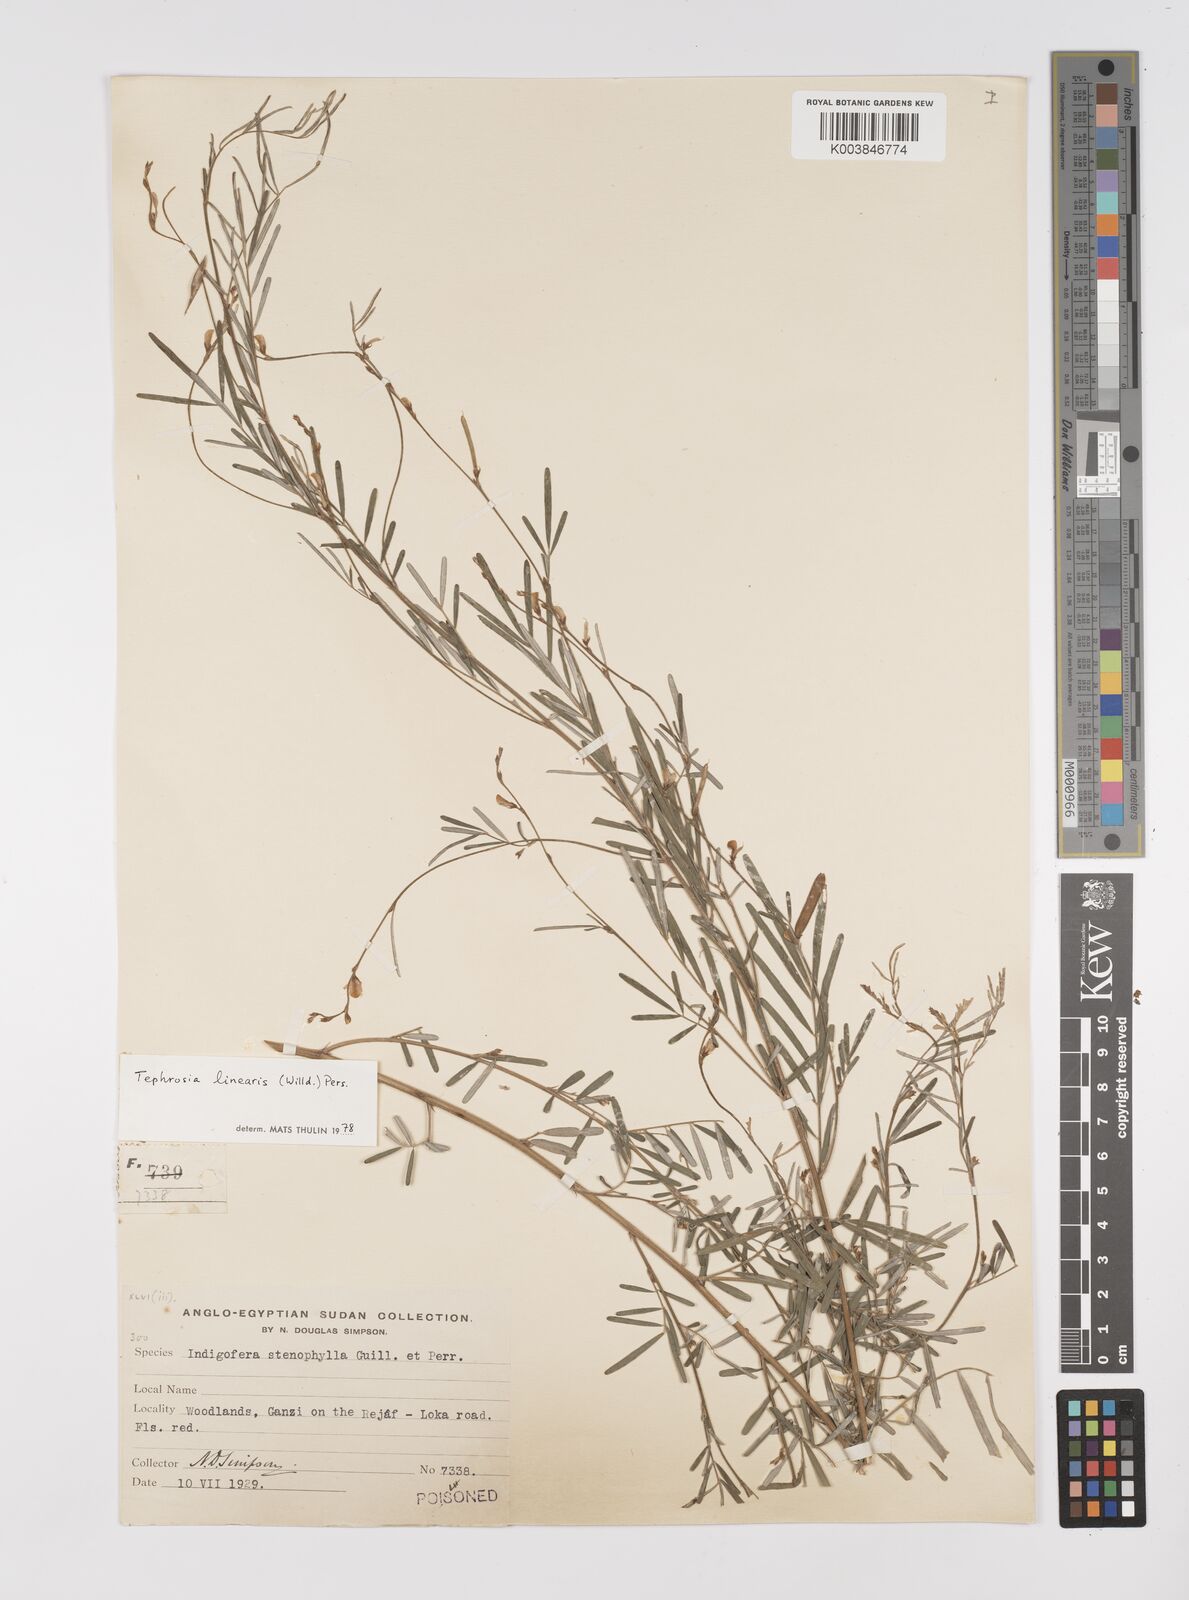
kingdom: Plantae
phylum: Tracheophyta
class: Magnoliopsida
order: Fabales
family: Fabaceae
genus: Tephrosia
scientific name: Tephrosia linearis
